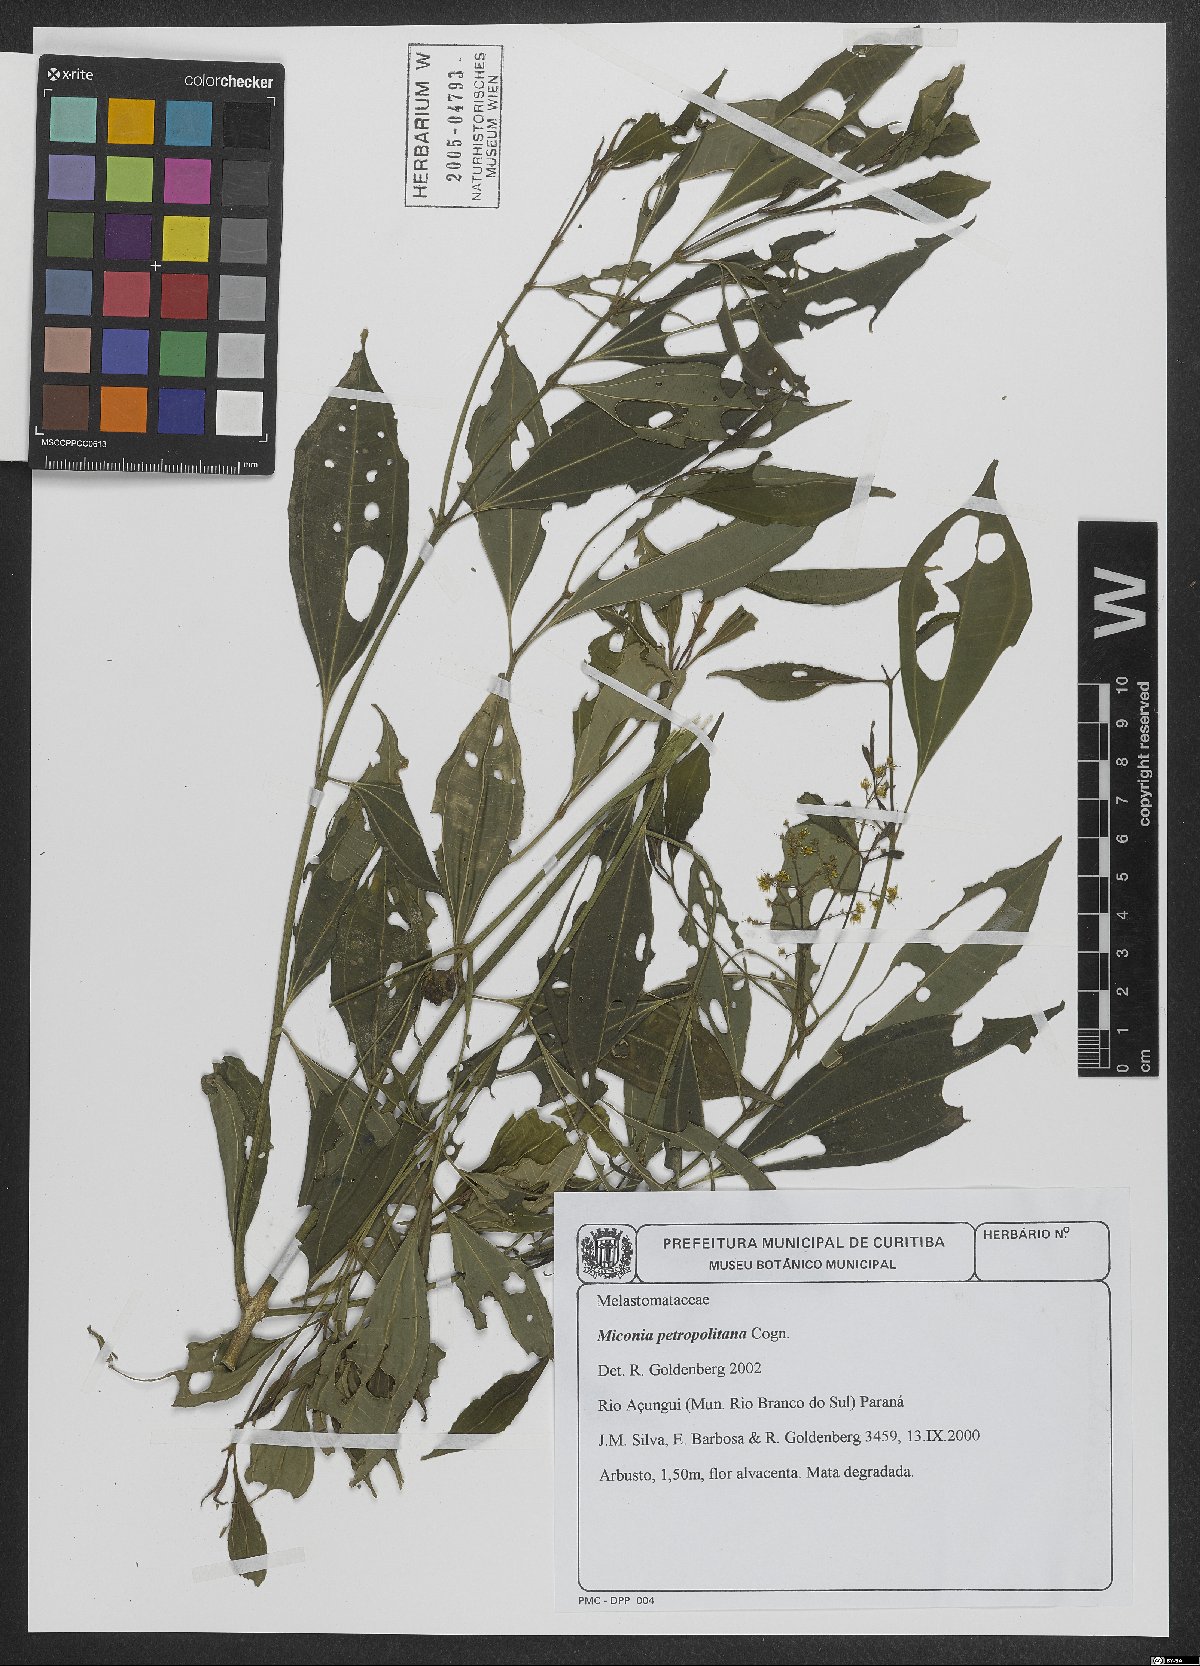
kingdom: Plantae
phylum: Tracheophyta
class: Magnoliopsida
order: Myrtales
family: Melastomataceae
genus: Miconia
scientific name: Miconia petropolitana
